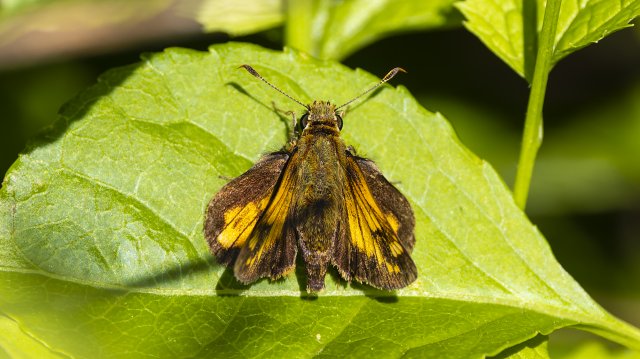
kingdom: Animalia
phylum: Arthropoda
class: Insecta
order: Lepidoptera
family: Hesperiidae
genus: Hesperia
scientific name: Hesperia sassacus
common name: Sassacus Skipper
